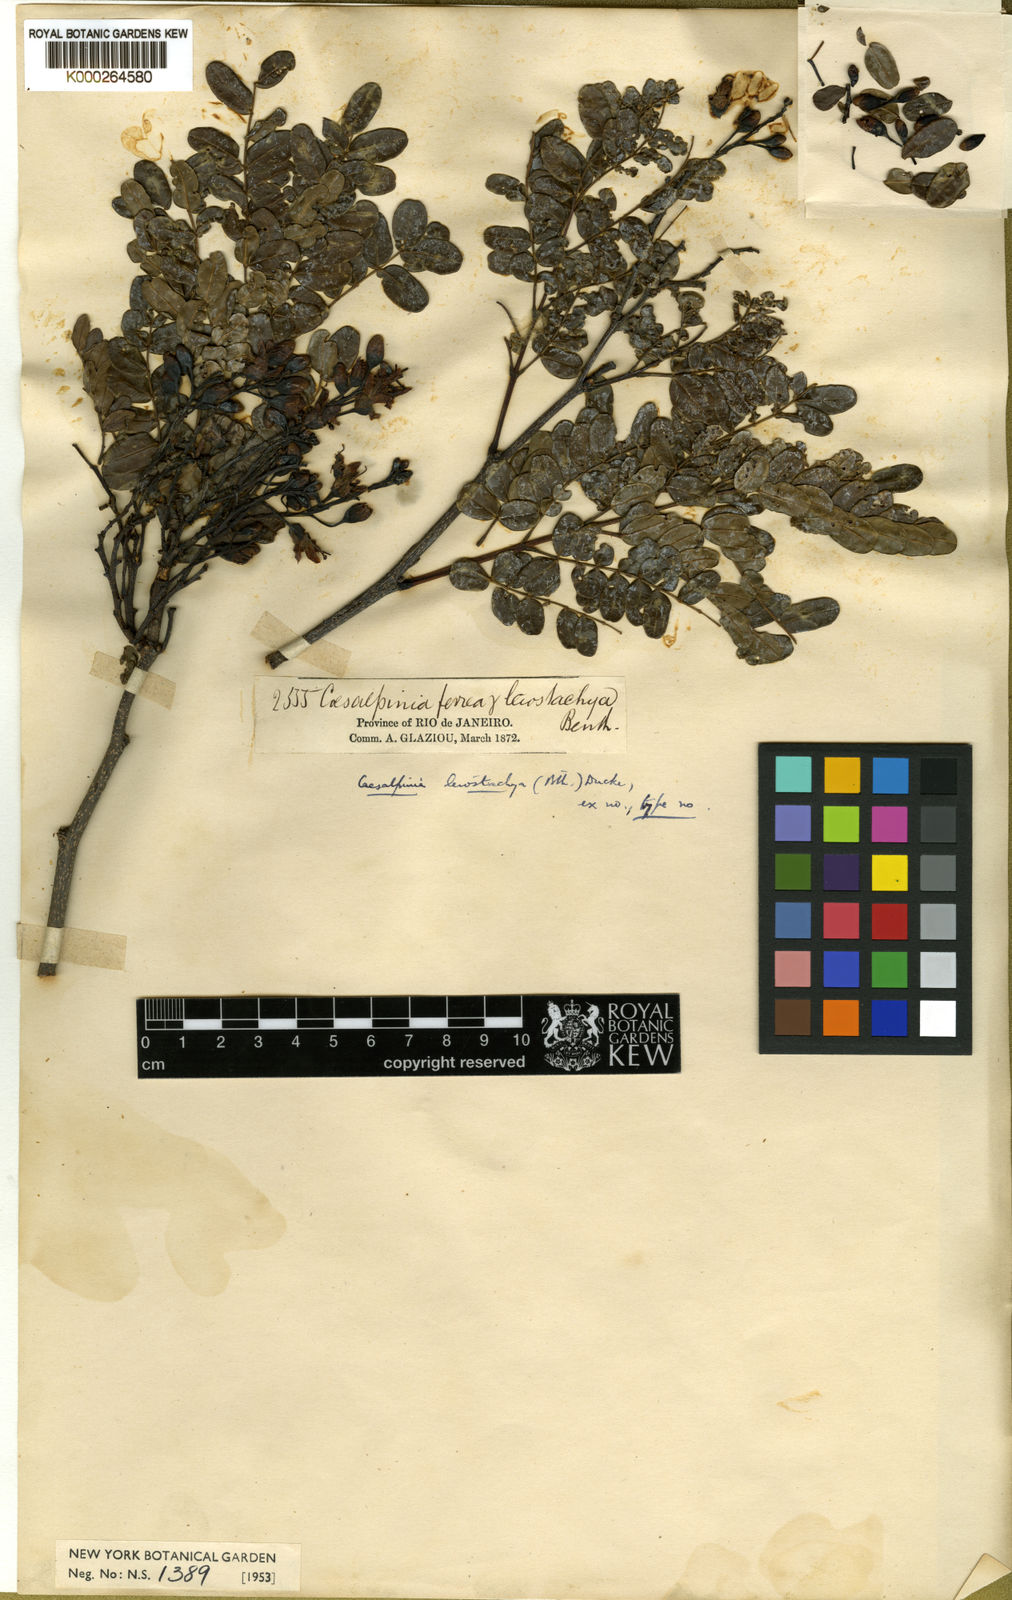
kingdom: Plantae
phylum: Tracheophyta
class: Magnoliopsida
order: Fabales
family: Fabaceae
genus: Libidibia
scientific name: Libidibia ferrea
